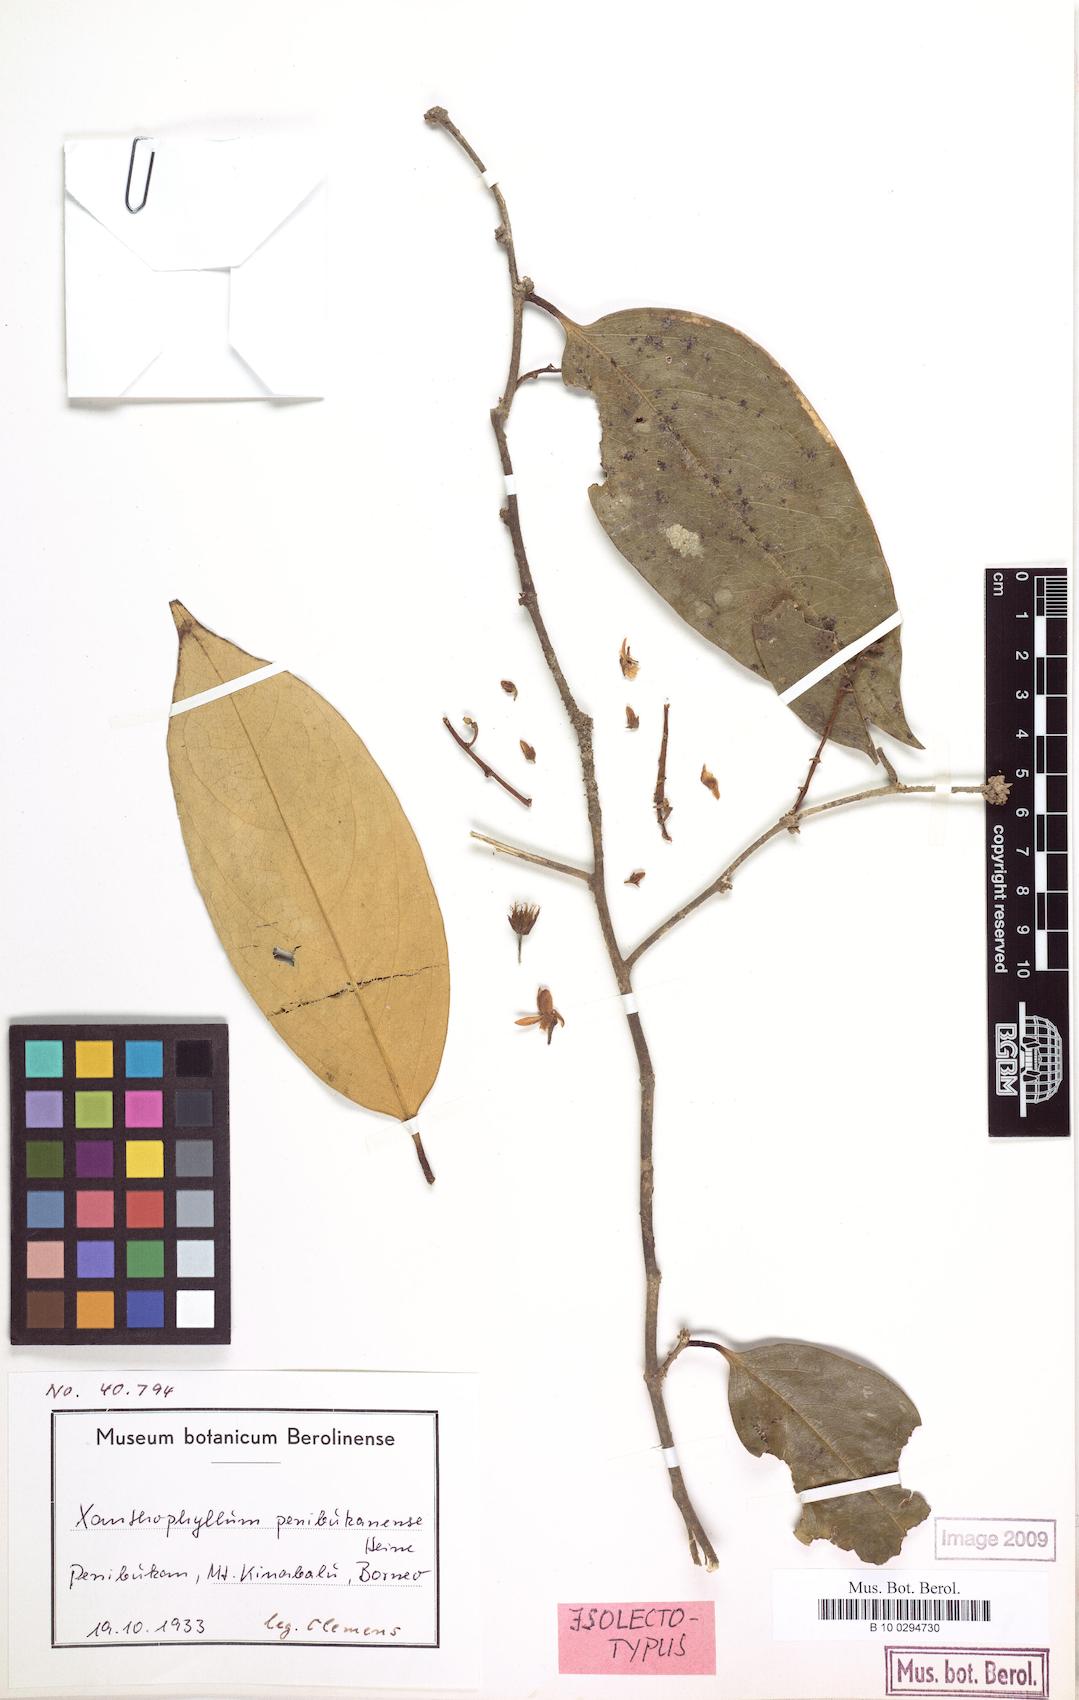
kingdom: Plantae
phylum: Tracheophyta
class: Magnoliopsida
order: Fabales
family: Polygalaceae
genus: Xanthophyllum
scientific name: Xanthophyllum penibukanense
